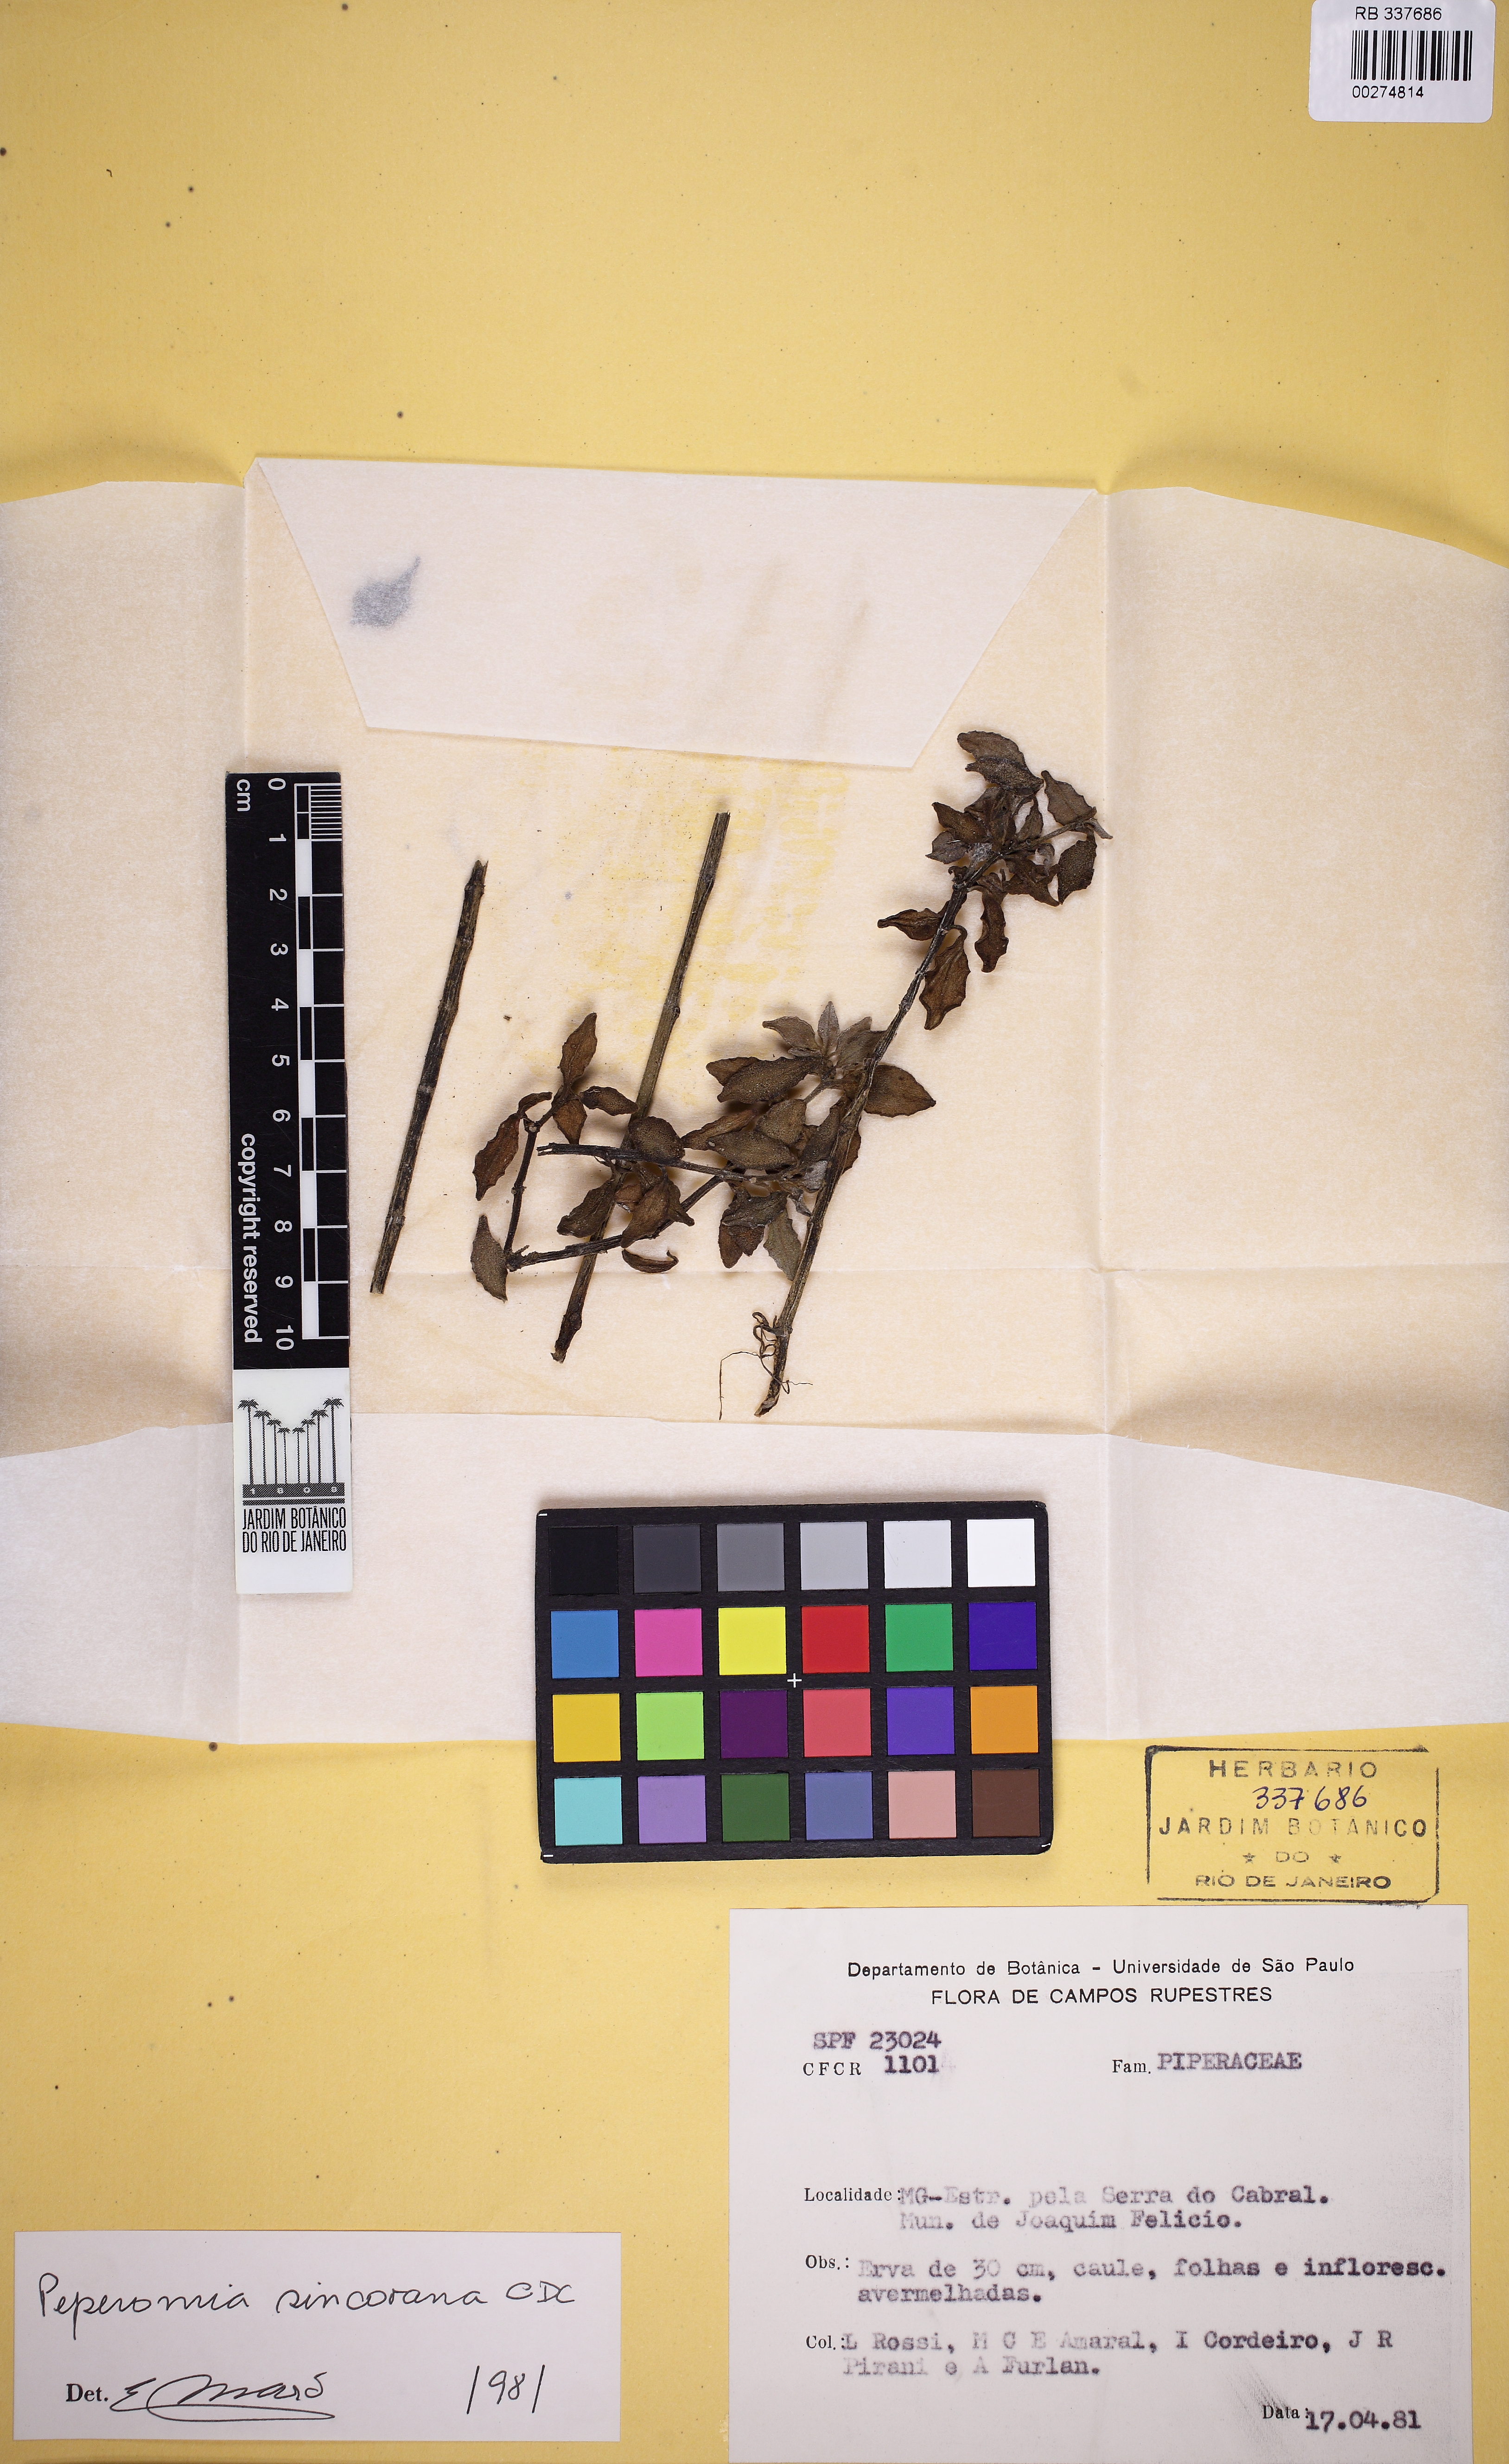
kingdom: Plantae
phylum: Tracheophyta
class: Magnoliopsida
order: Piperales
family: Piperaceae
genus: Peperomia
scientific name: Peperomia sincorana
